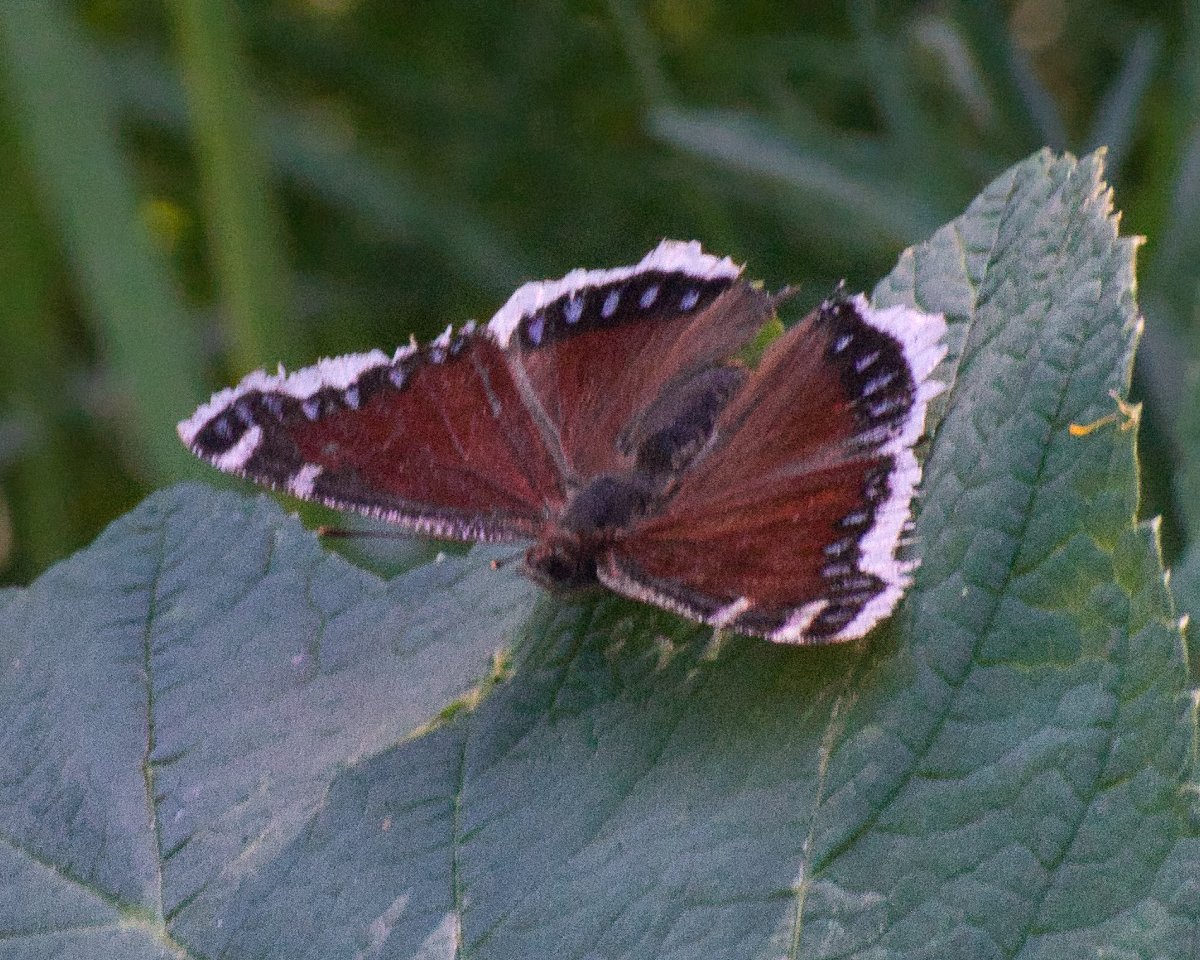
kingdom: Animalia
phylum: Arthropoda
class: Insecta
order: Lepidoptera
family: Nymphalidae
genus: Nymphalis
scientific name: Nymphalis antiopa
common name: Mourning Cloak
